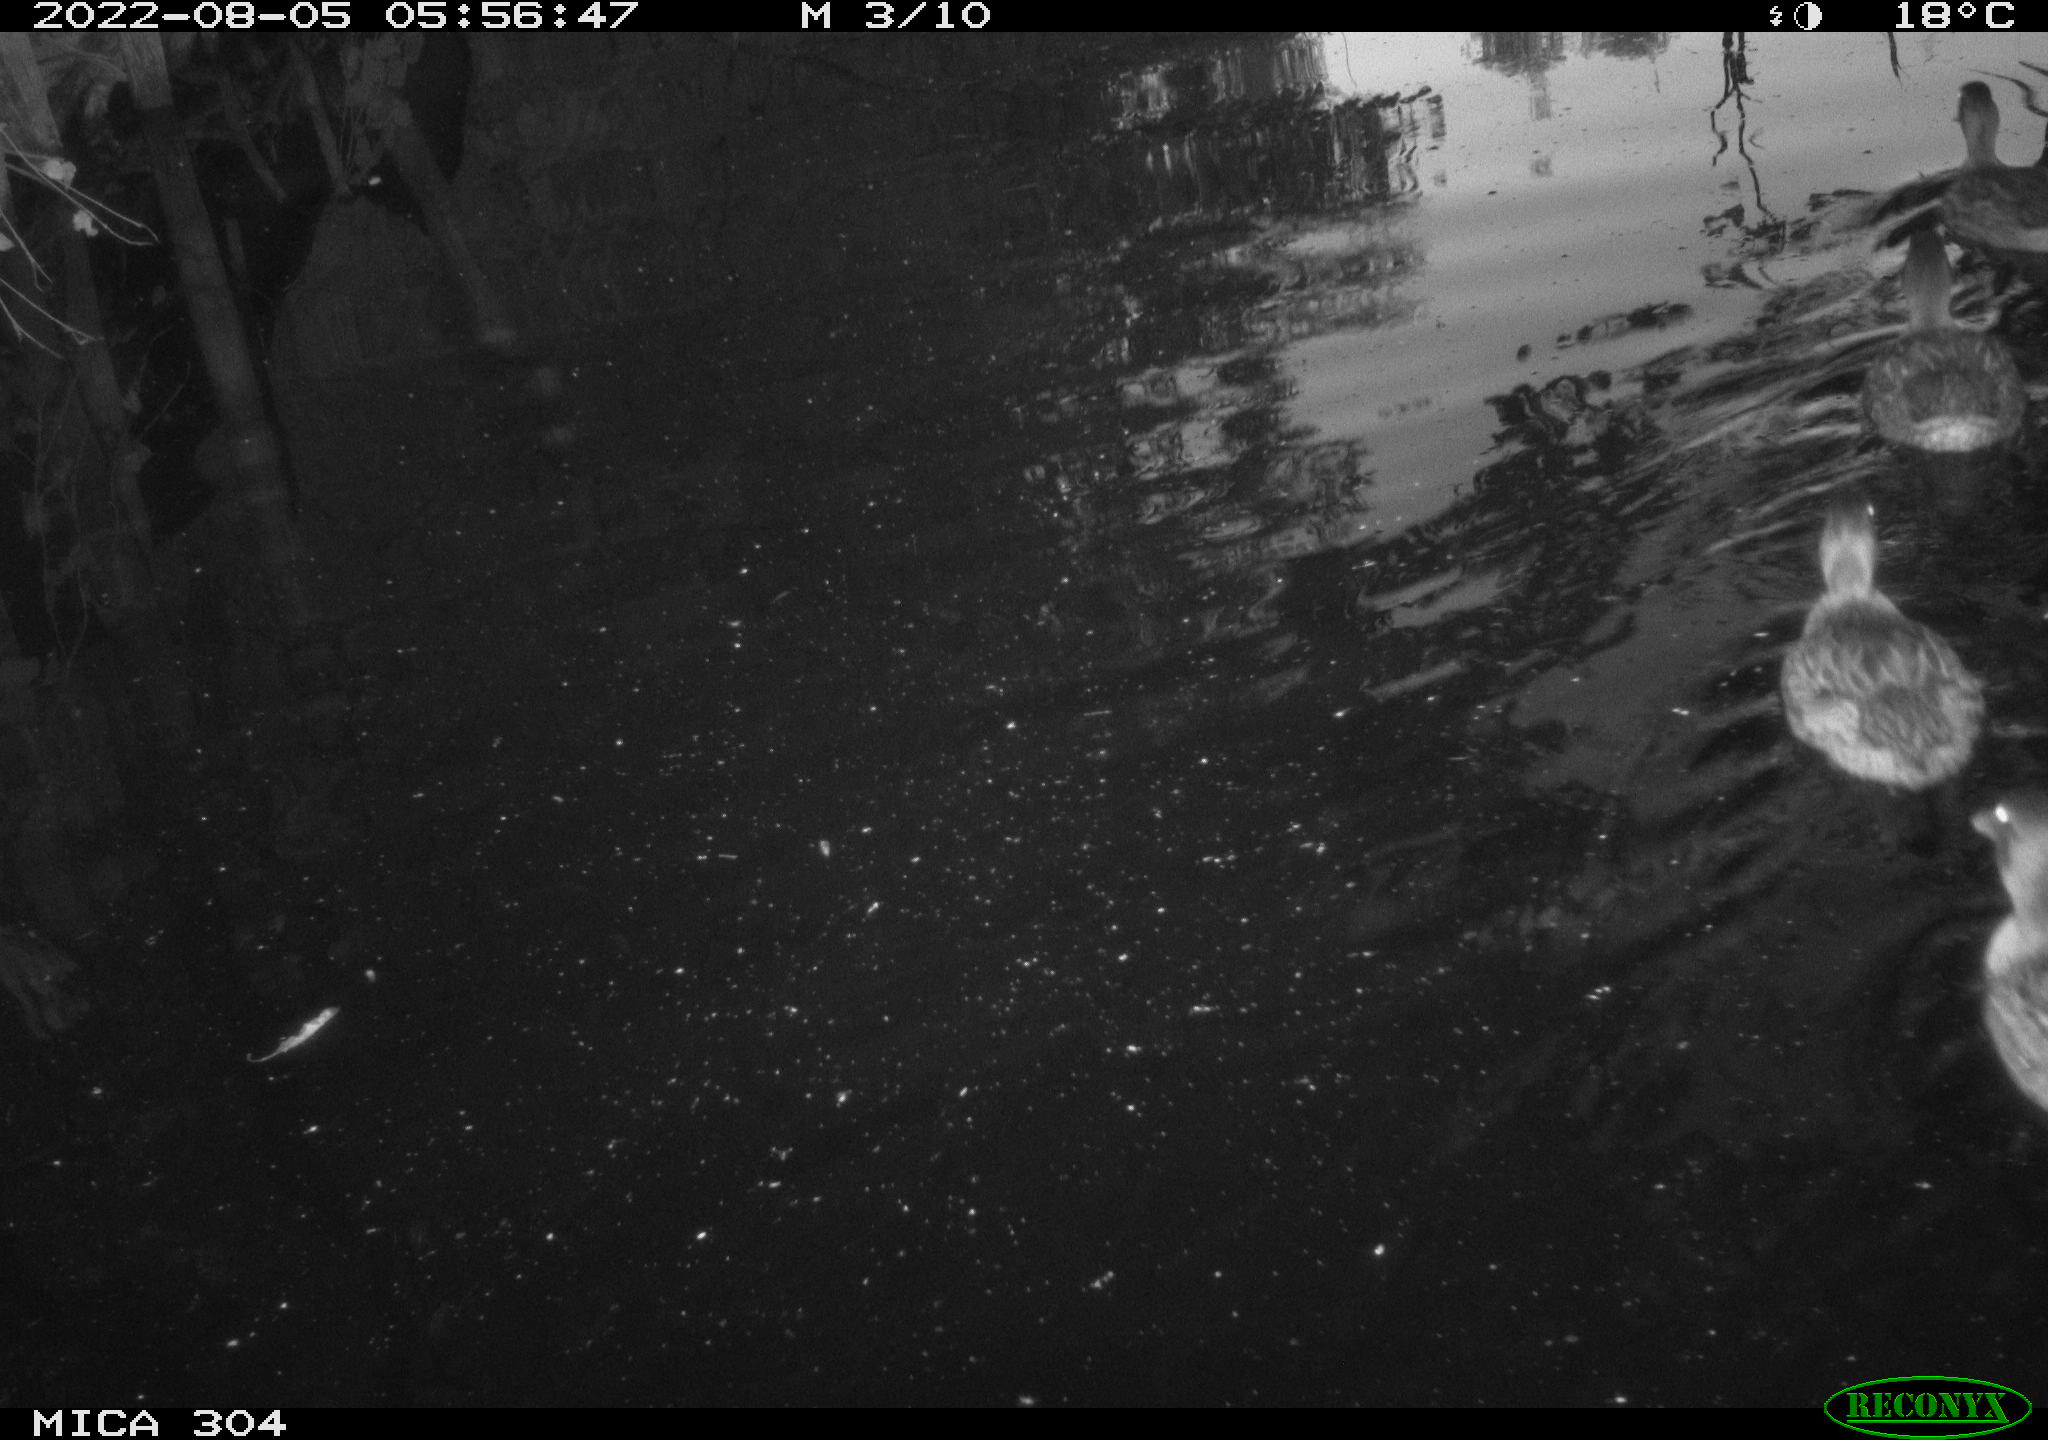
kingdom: Animalia
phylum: Chordata
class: Aves
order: Anseriformes
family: Anatidae
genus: Anas
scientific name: Anas platyrhynchos
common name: Mallard
